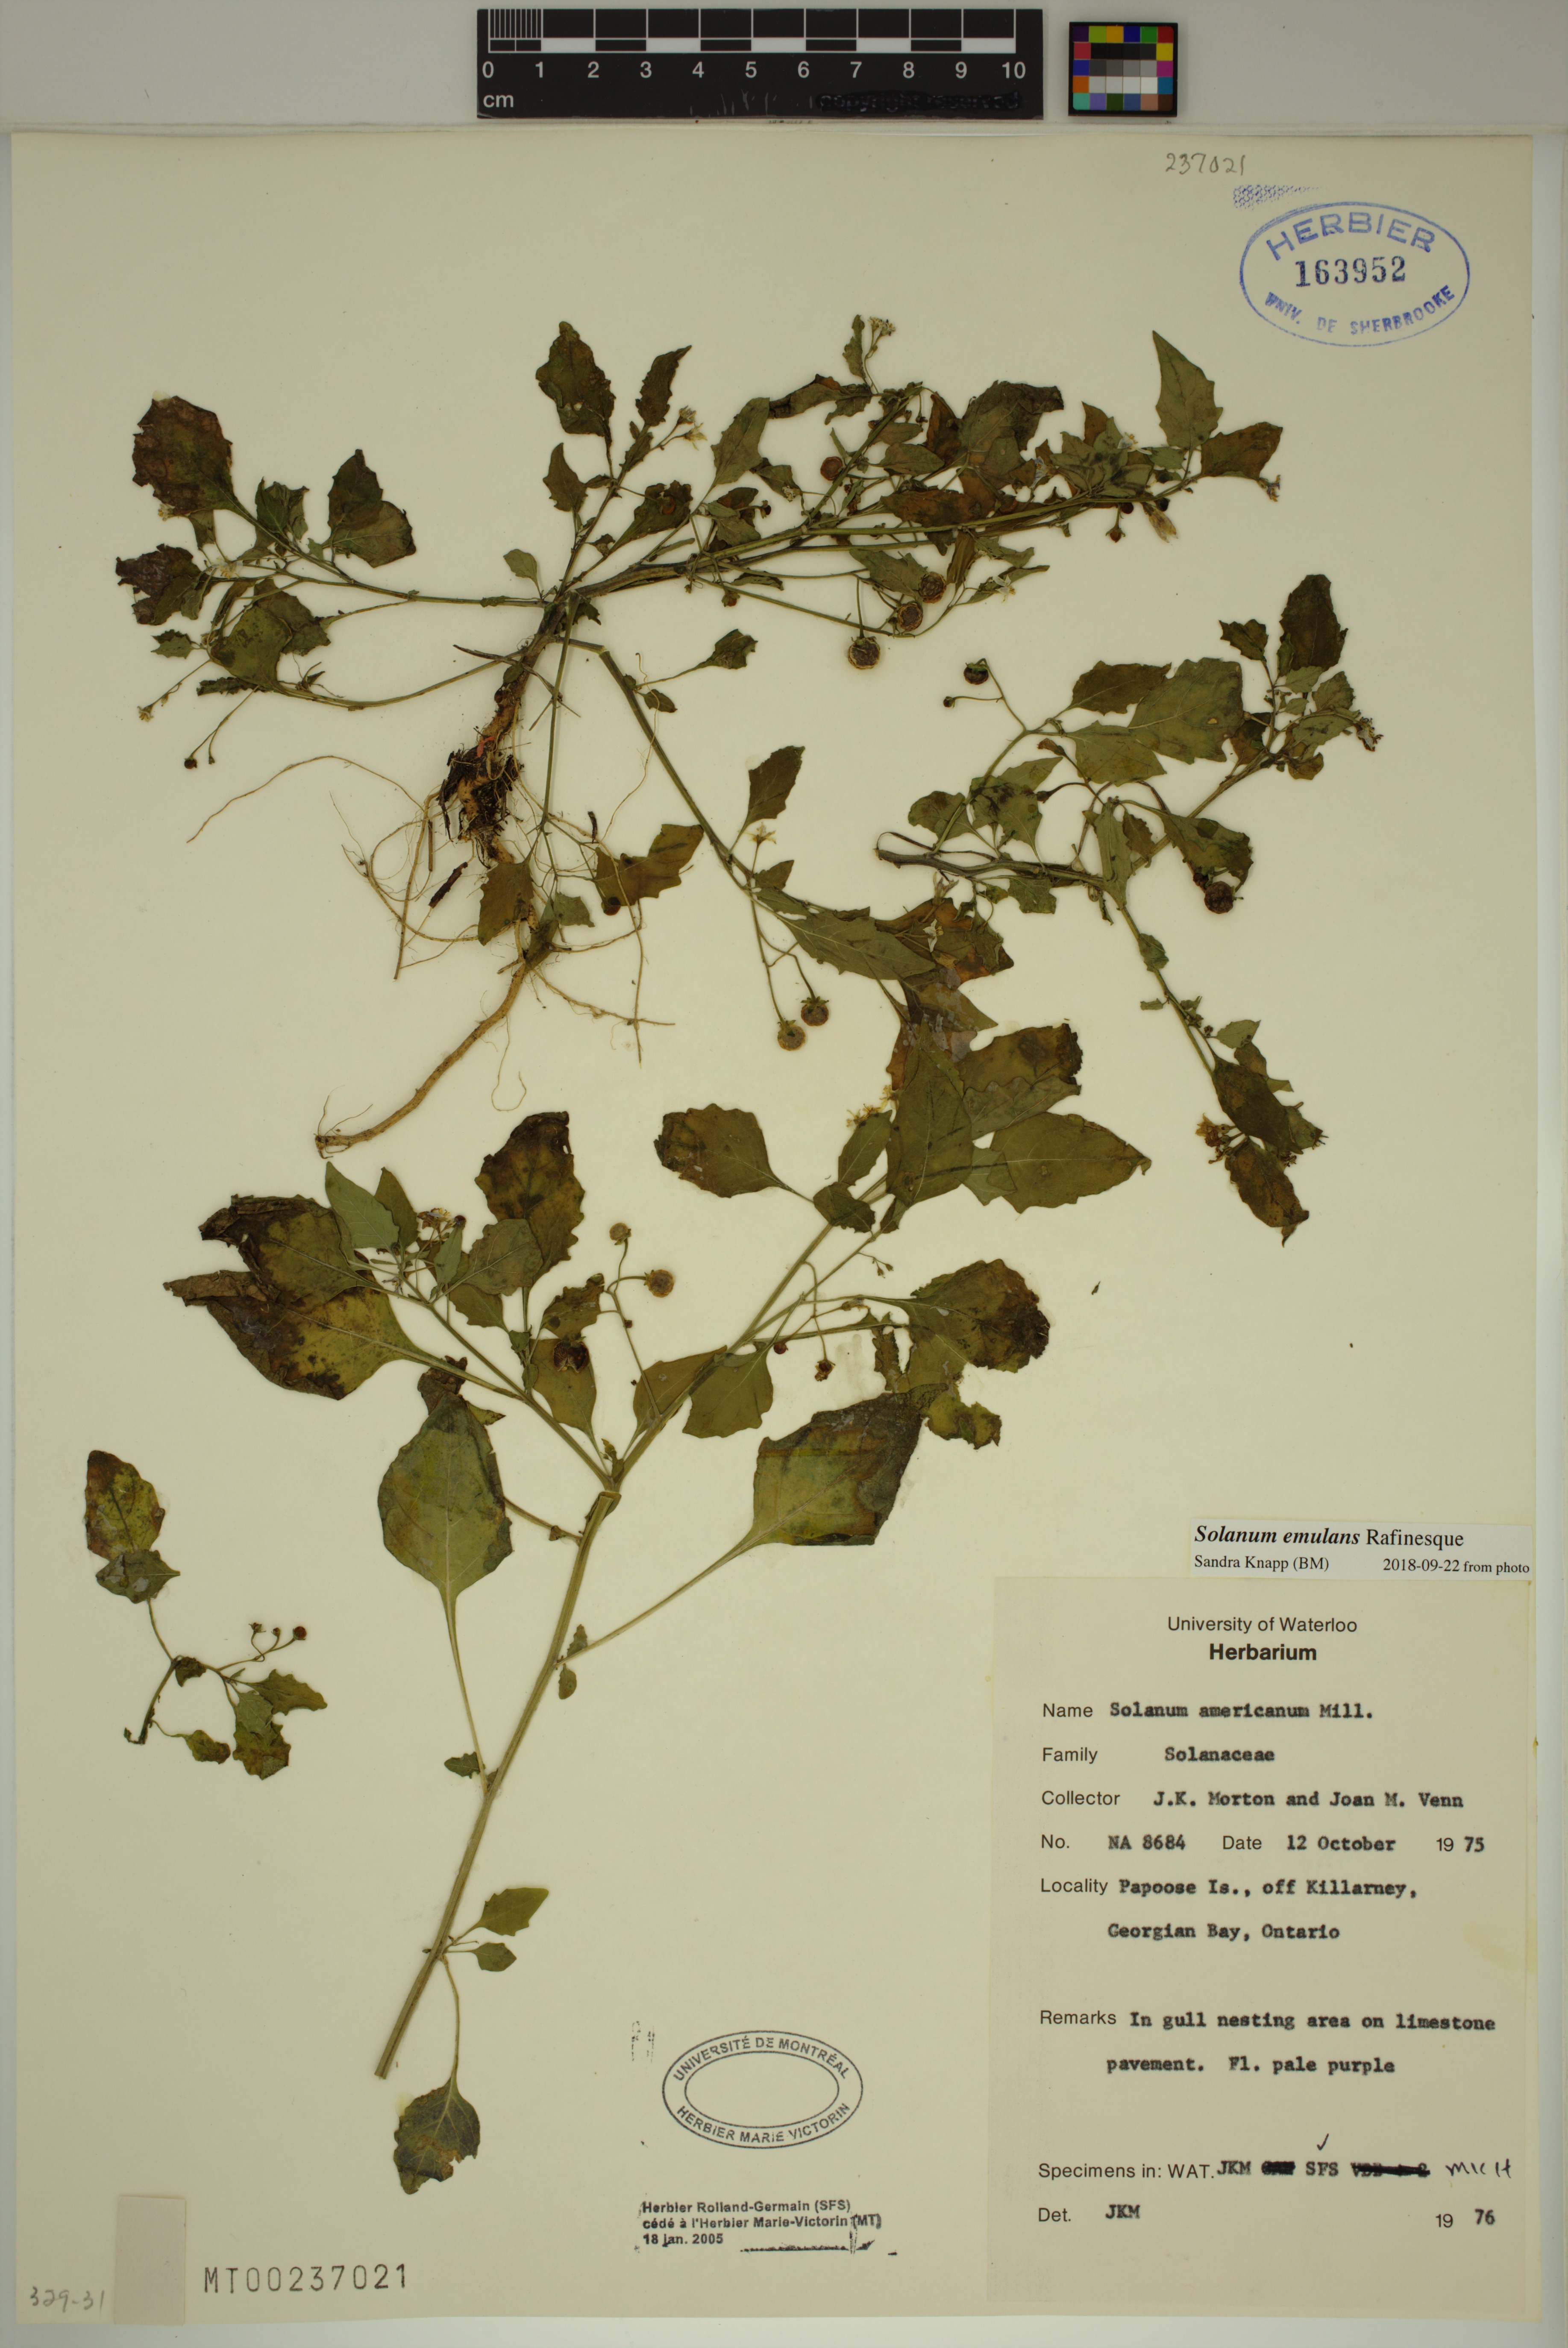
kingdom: Plantae
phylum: Tracheophyta
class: Magnoliopsida
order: Solanales
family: Solanaceae
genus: Solanum
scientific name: Solanum emulans
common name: Eastern black nightshade
